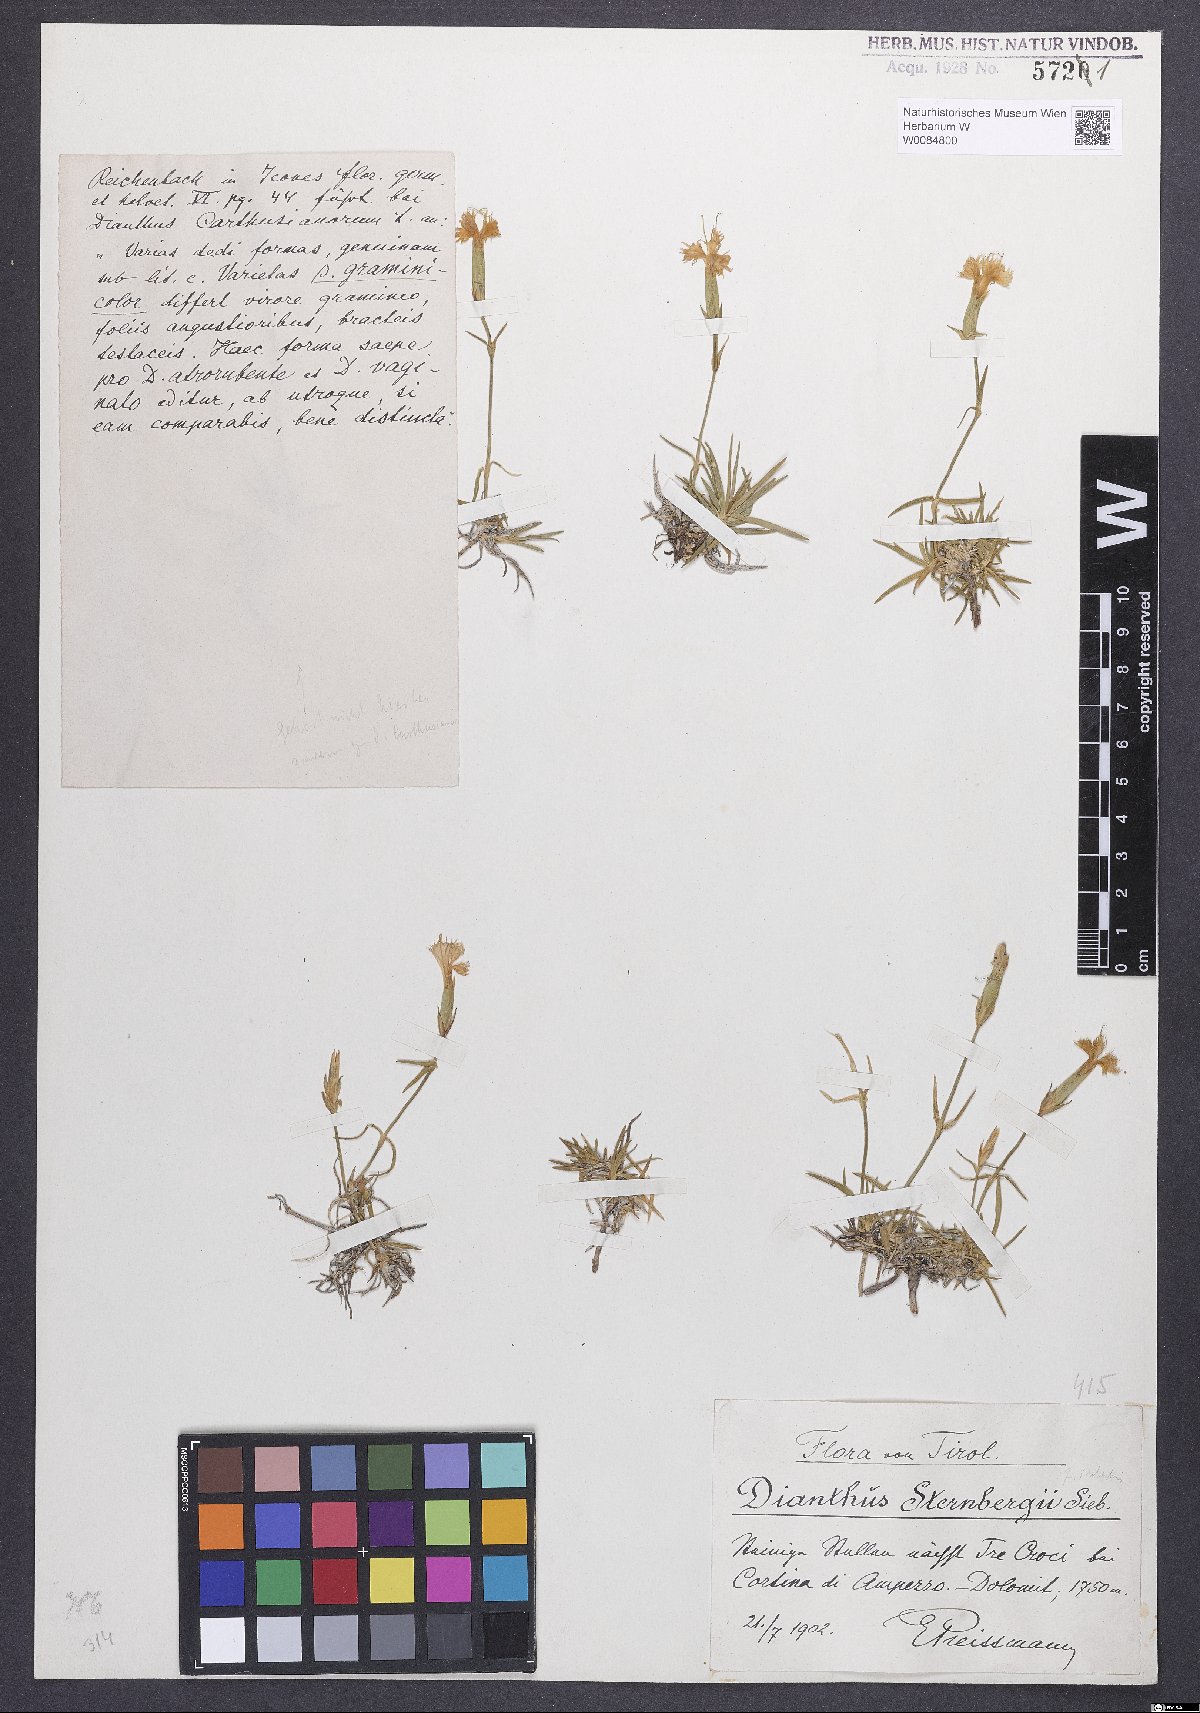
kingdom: Plantae
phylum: Tracheophyta
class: Magnoliopsida
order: Caryophyllales
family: Caryophyllaceae
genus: Dianthus
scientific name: Dianthus monspessulanus
